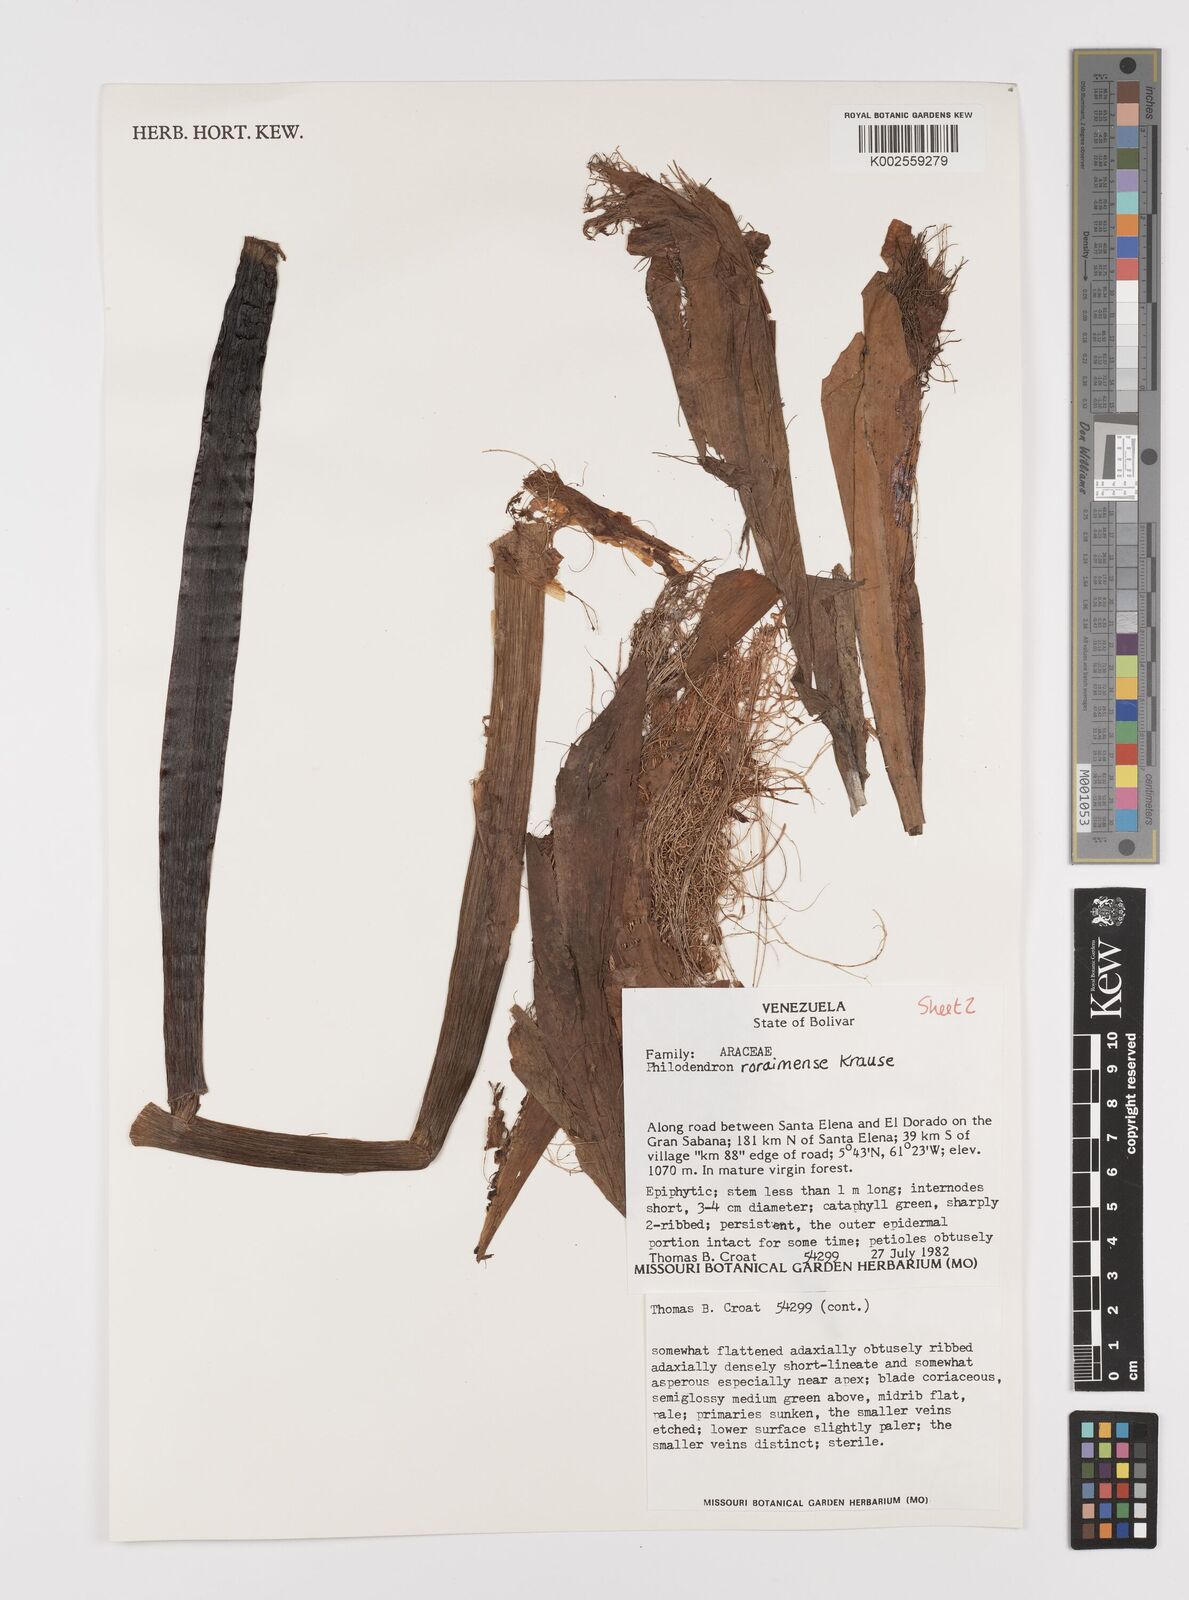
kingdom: Plantae
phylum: Tracheophyta
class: Liliopsida
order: Alismatales
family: Araceae
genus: Philodendron
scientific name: Philodendron roraimae
